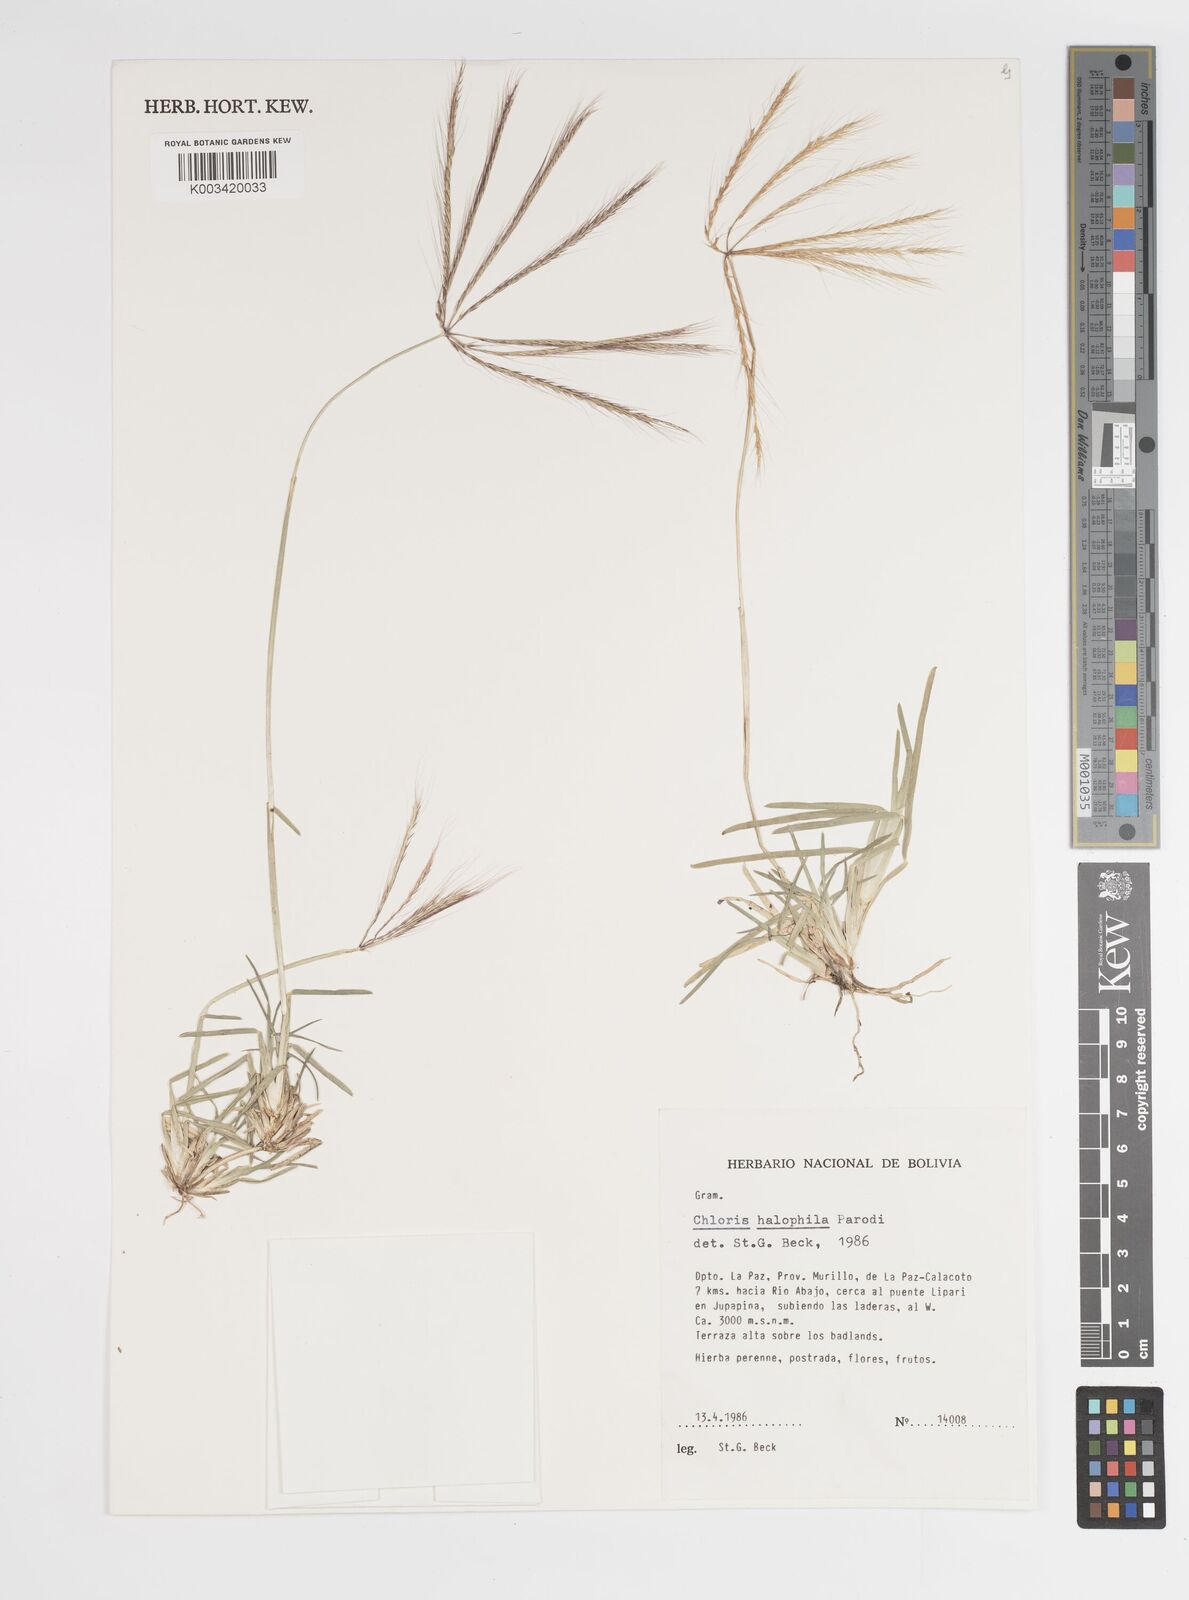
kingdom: Plantae
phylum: Tracheophyta
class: Liliopsida
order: Poales
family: Poaceae
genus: Chloris
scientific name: Chloris halophila
